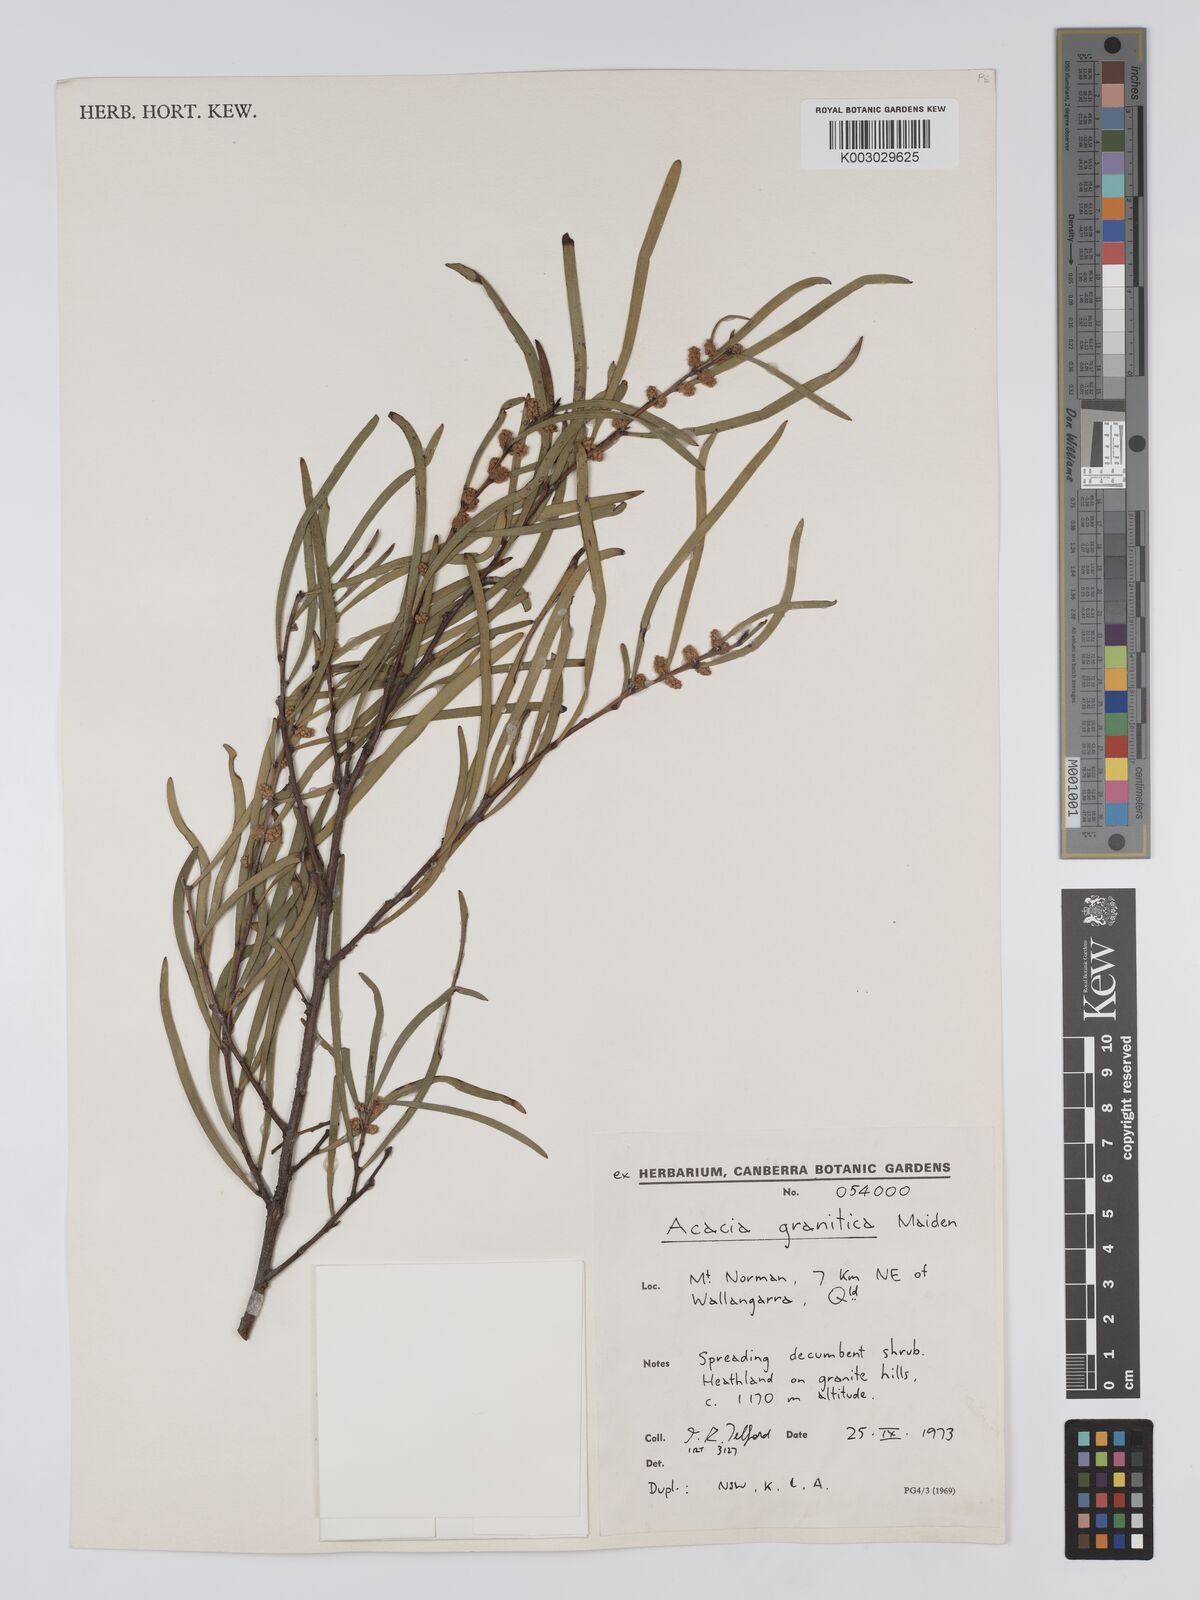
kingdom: Plantae
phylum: Tracheophyta
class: Magnoliopsida
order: Fabales
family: Fabaceae
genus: Acacia
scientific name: Acacia granitica
